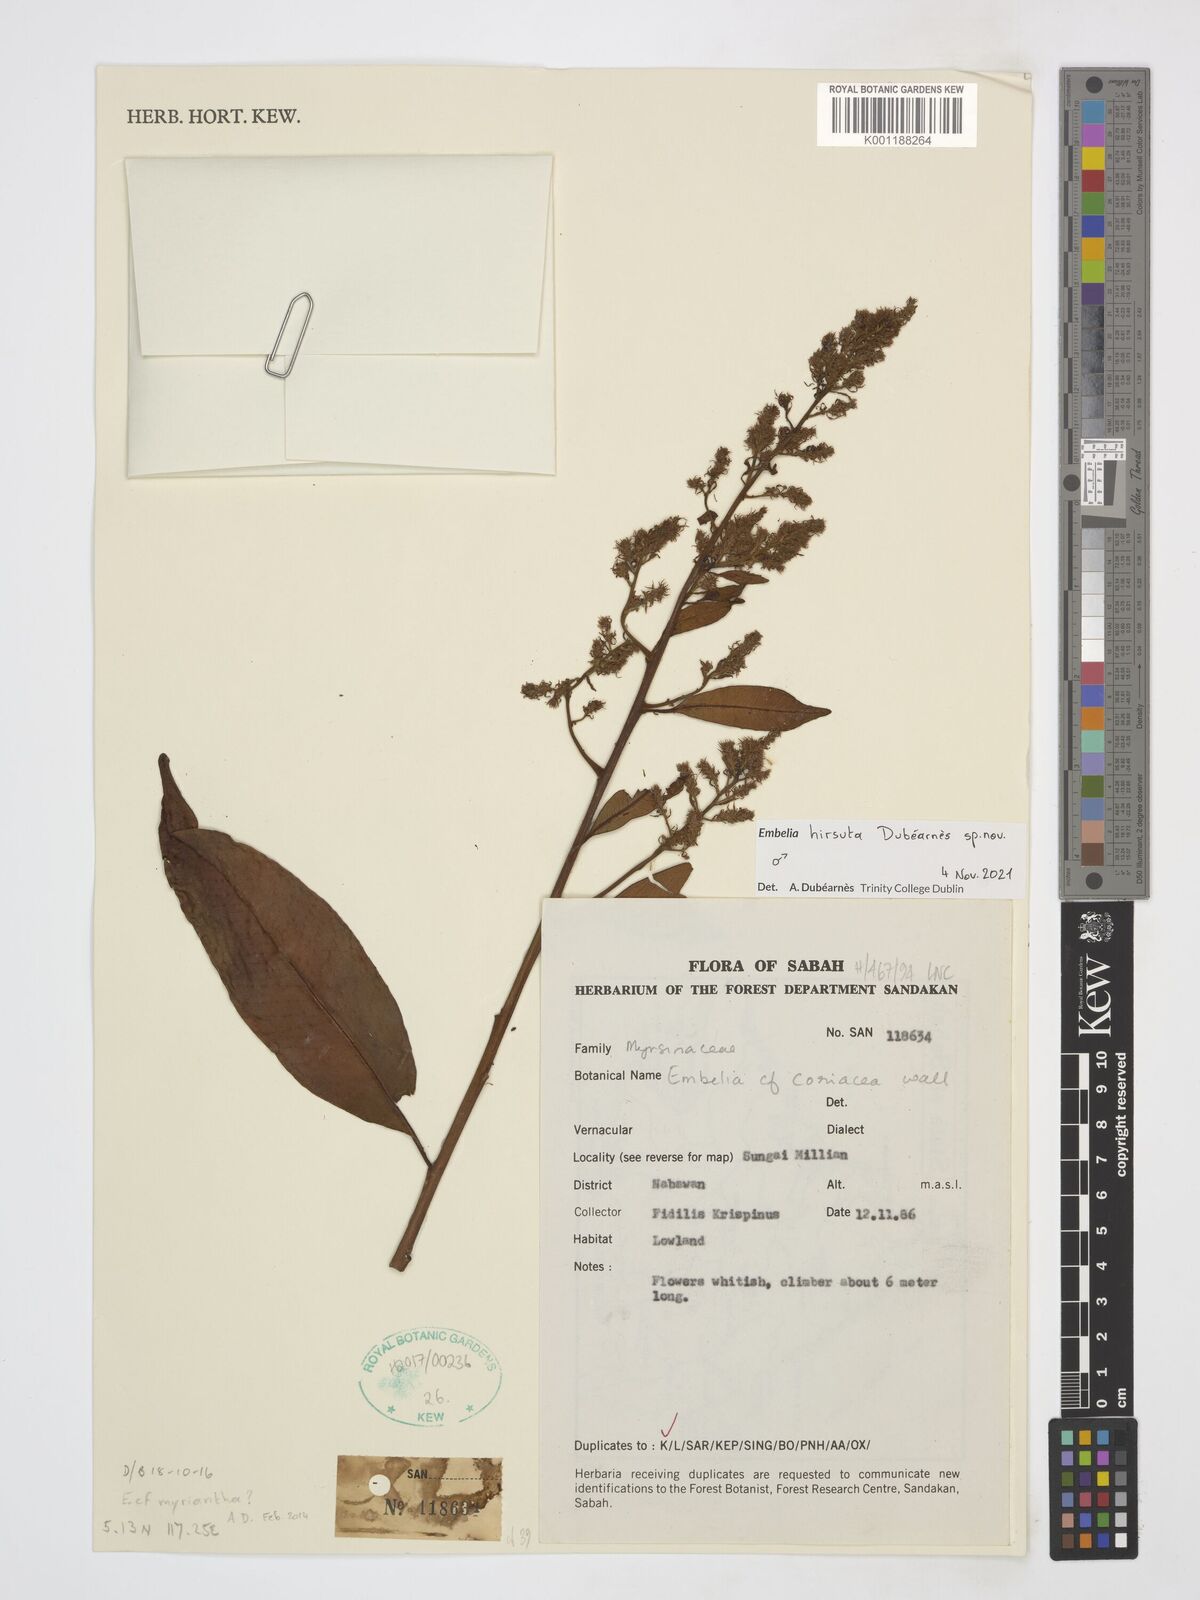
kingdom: Plantae
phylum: Tracheophyta
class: Magnoliopsida
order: Ericales
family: Primulaceae
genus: Embelia
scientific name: Embelia
